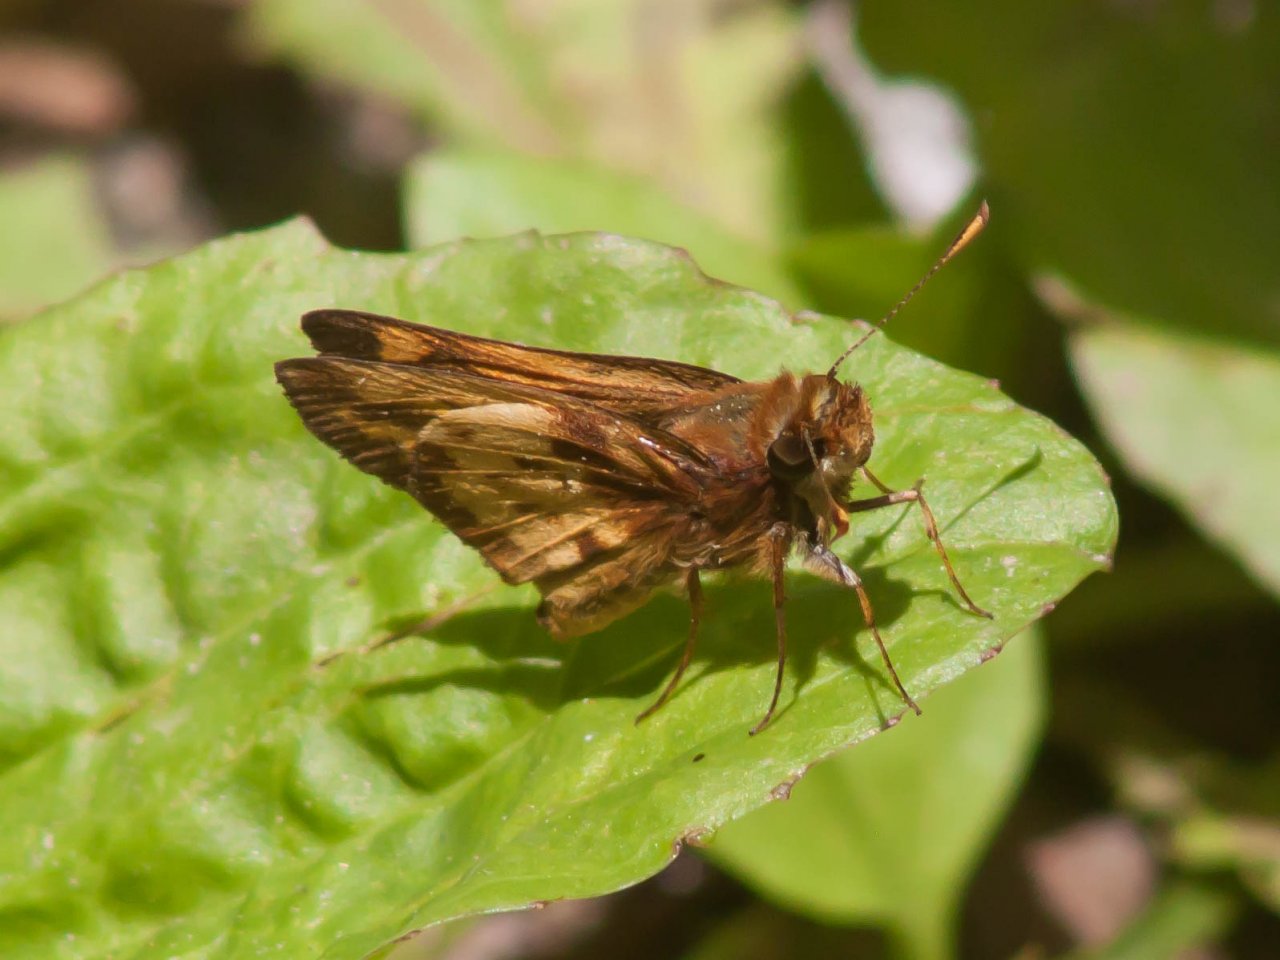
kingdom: Animalia
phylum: Arthropoda
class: Insecta
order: Lepidoptera
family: Hesperiidae
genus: Lon
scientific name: Lon zabulon
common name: Zabulon Skipper
